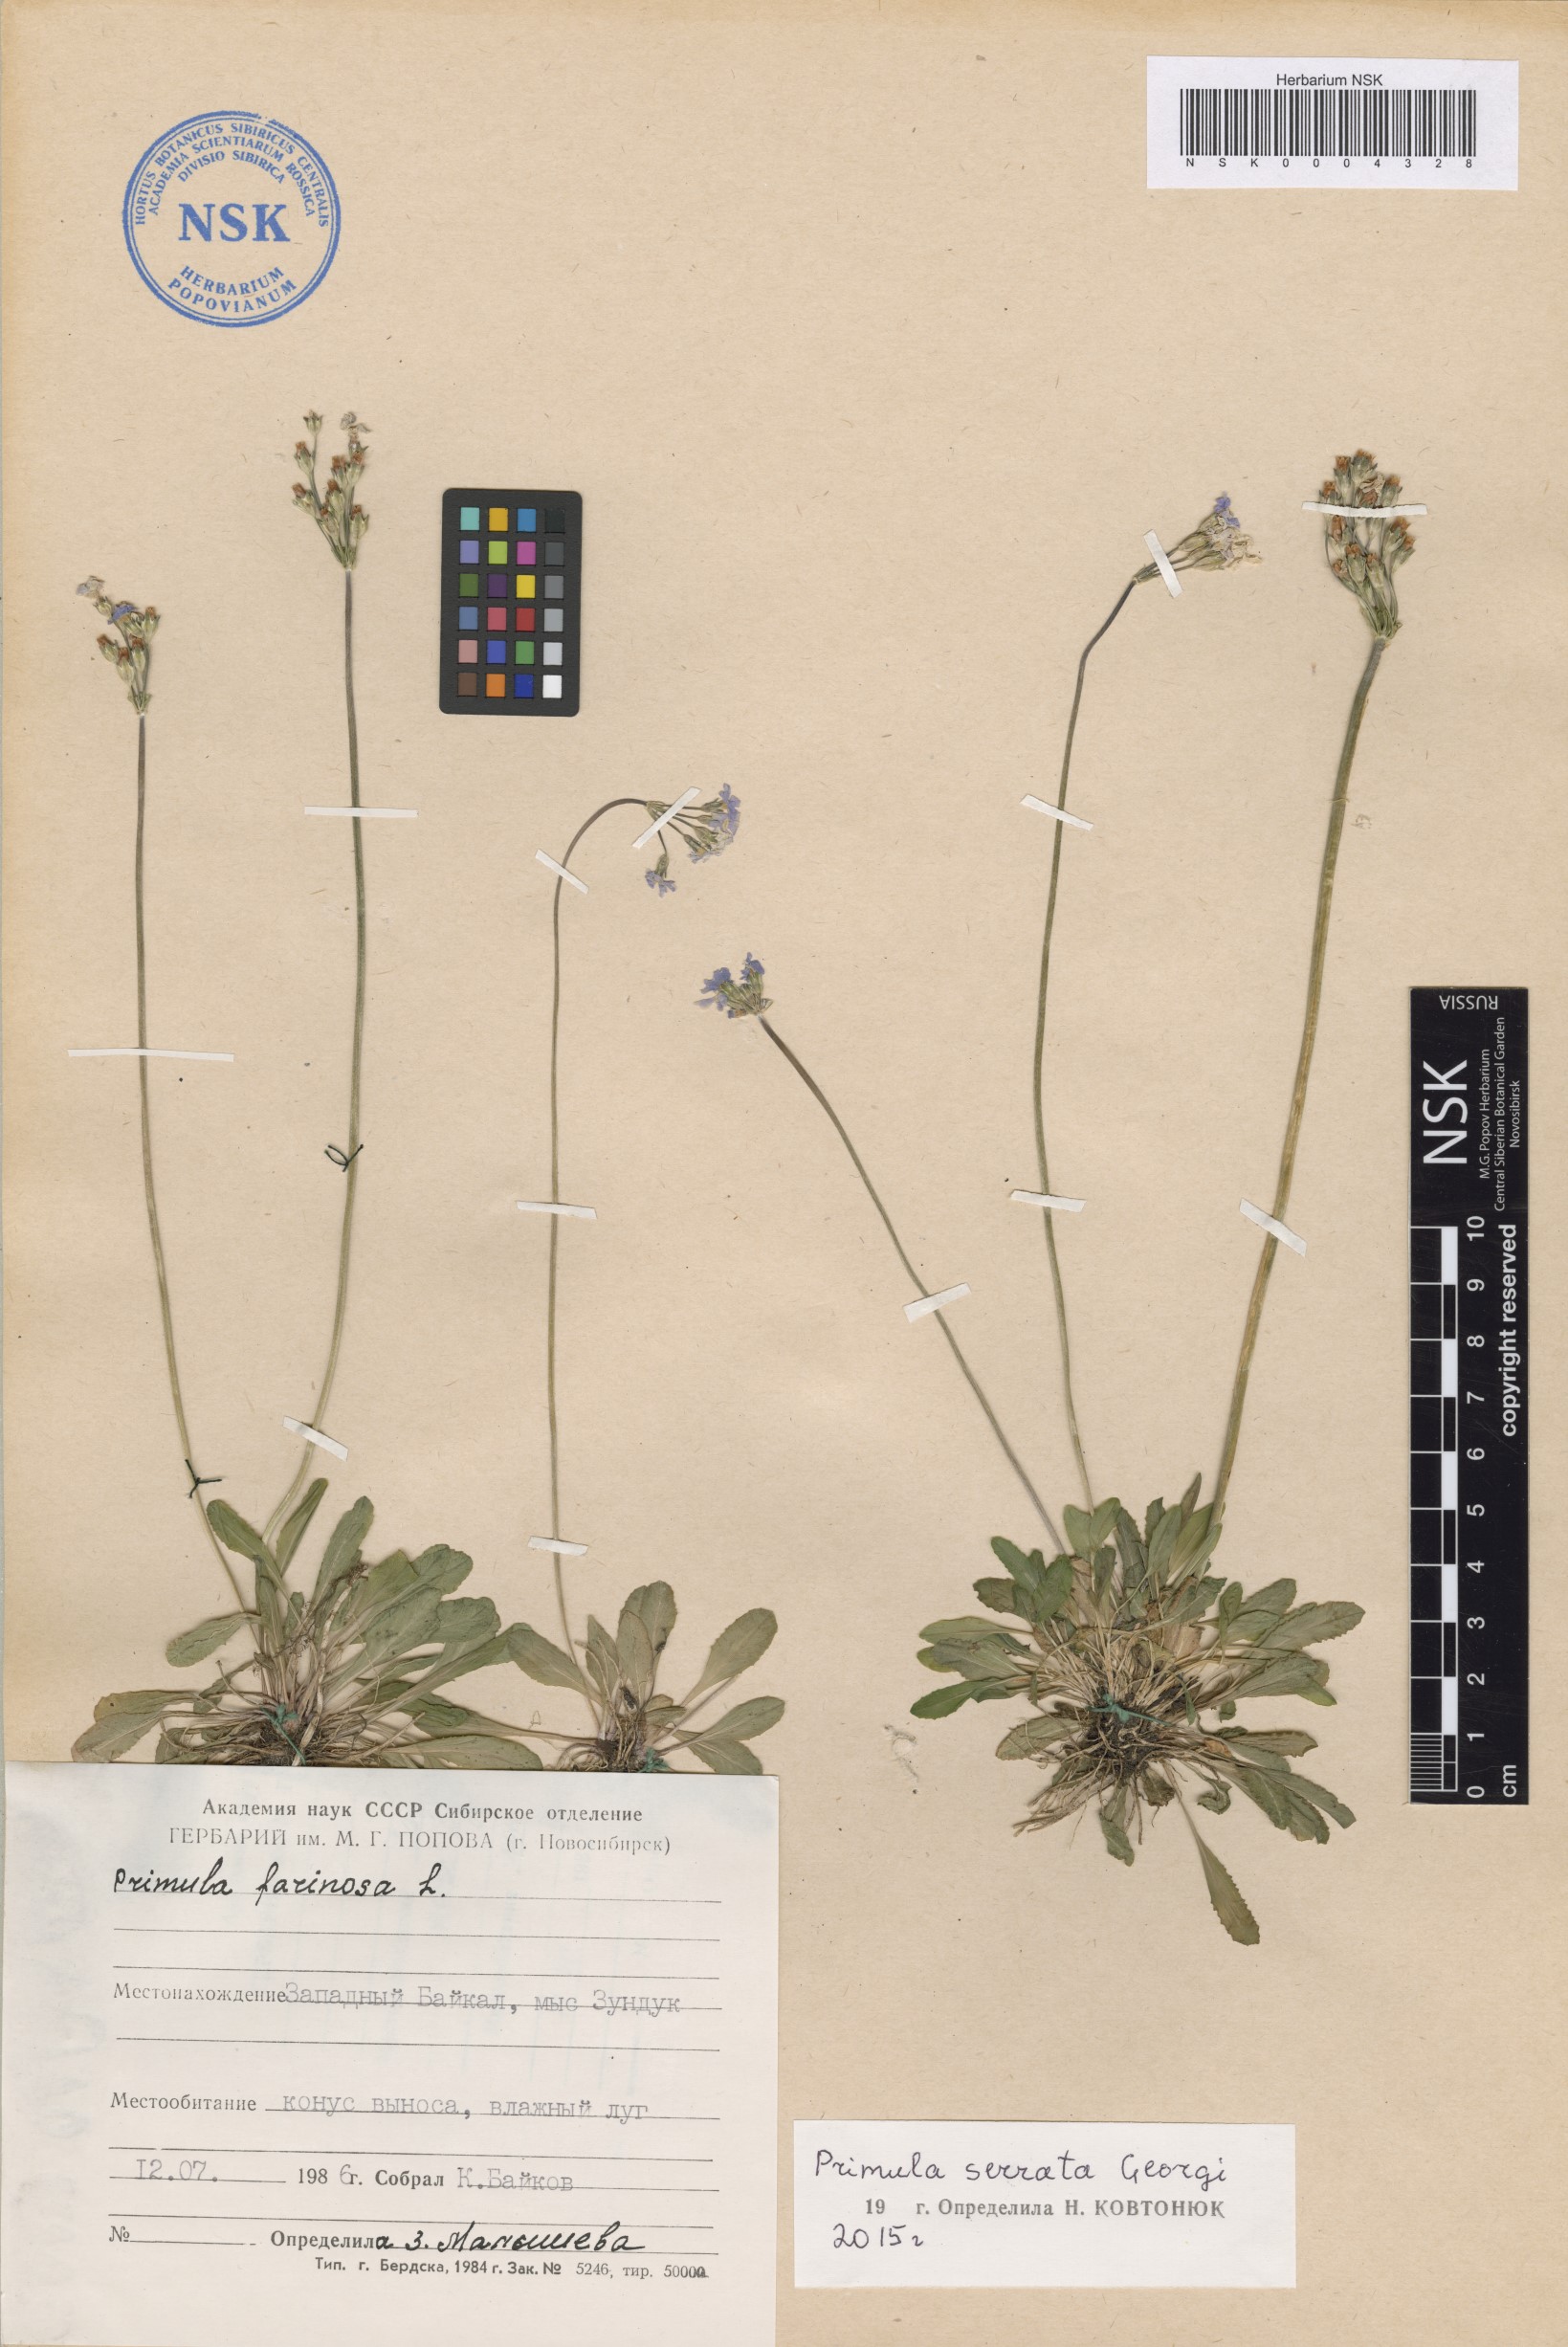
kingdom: Plantae
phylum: Tracheophyta
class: Magnoliopsida
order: Ericales
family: Primulaceae
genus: Primula
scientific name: Primula serrata
